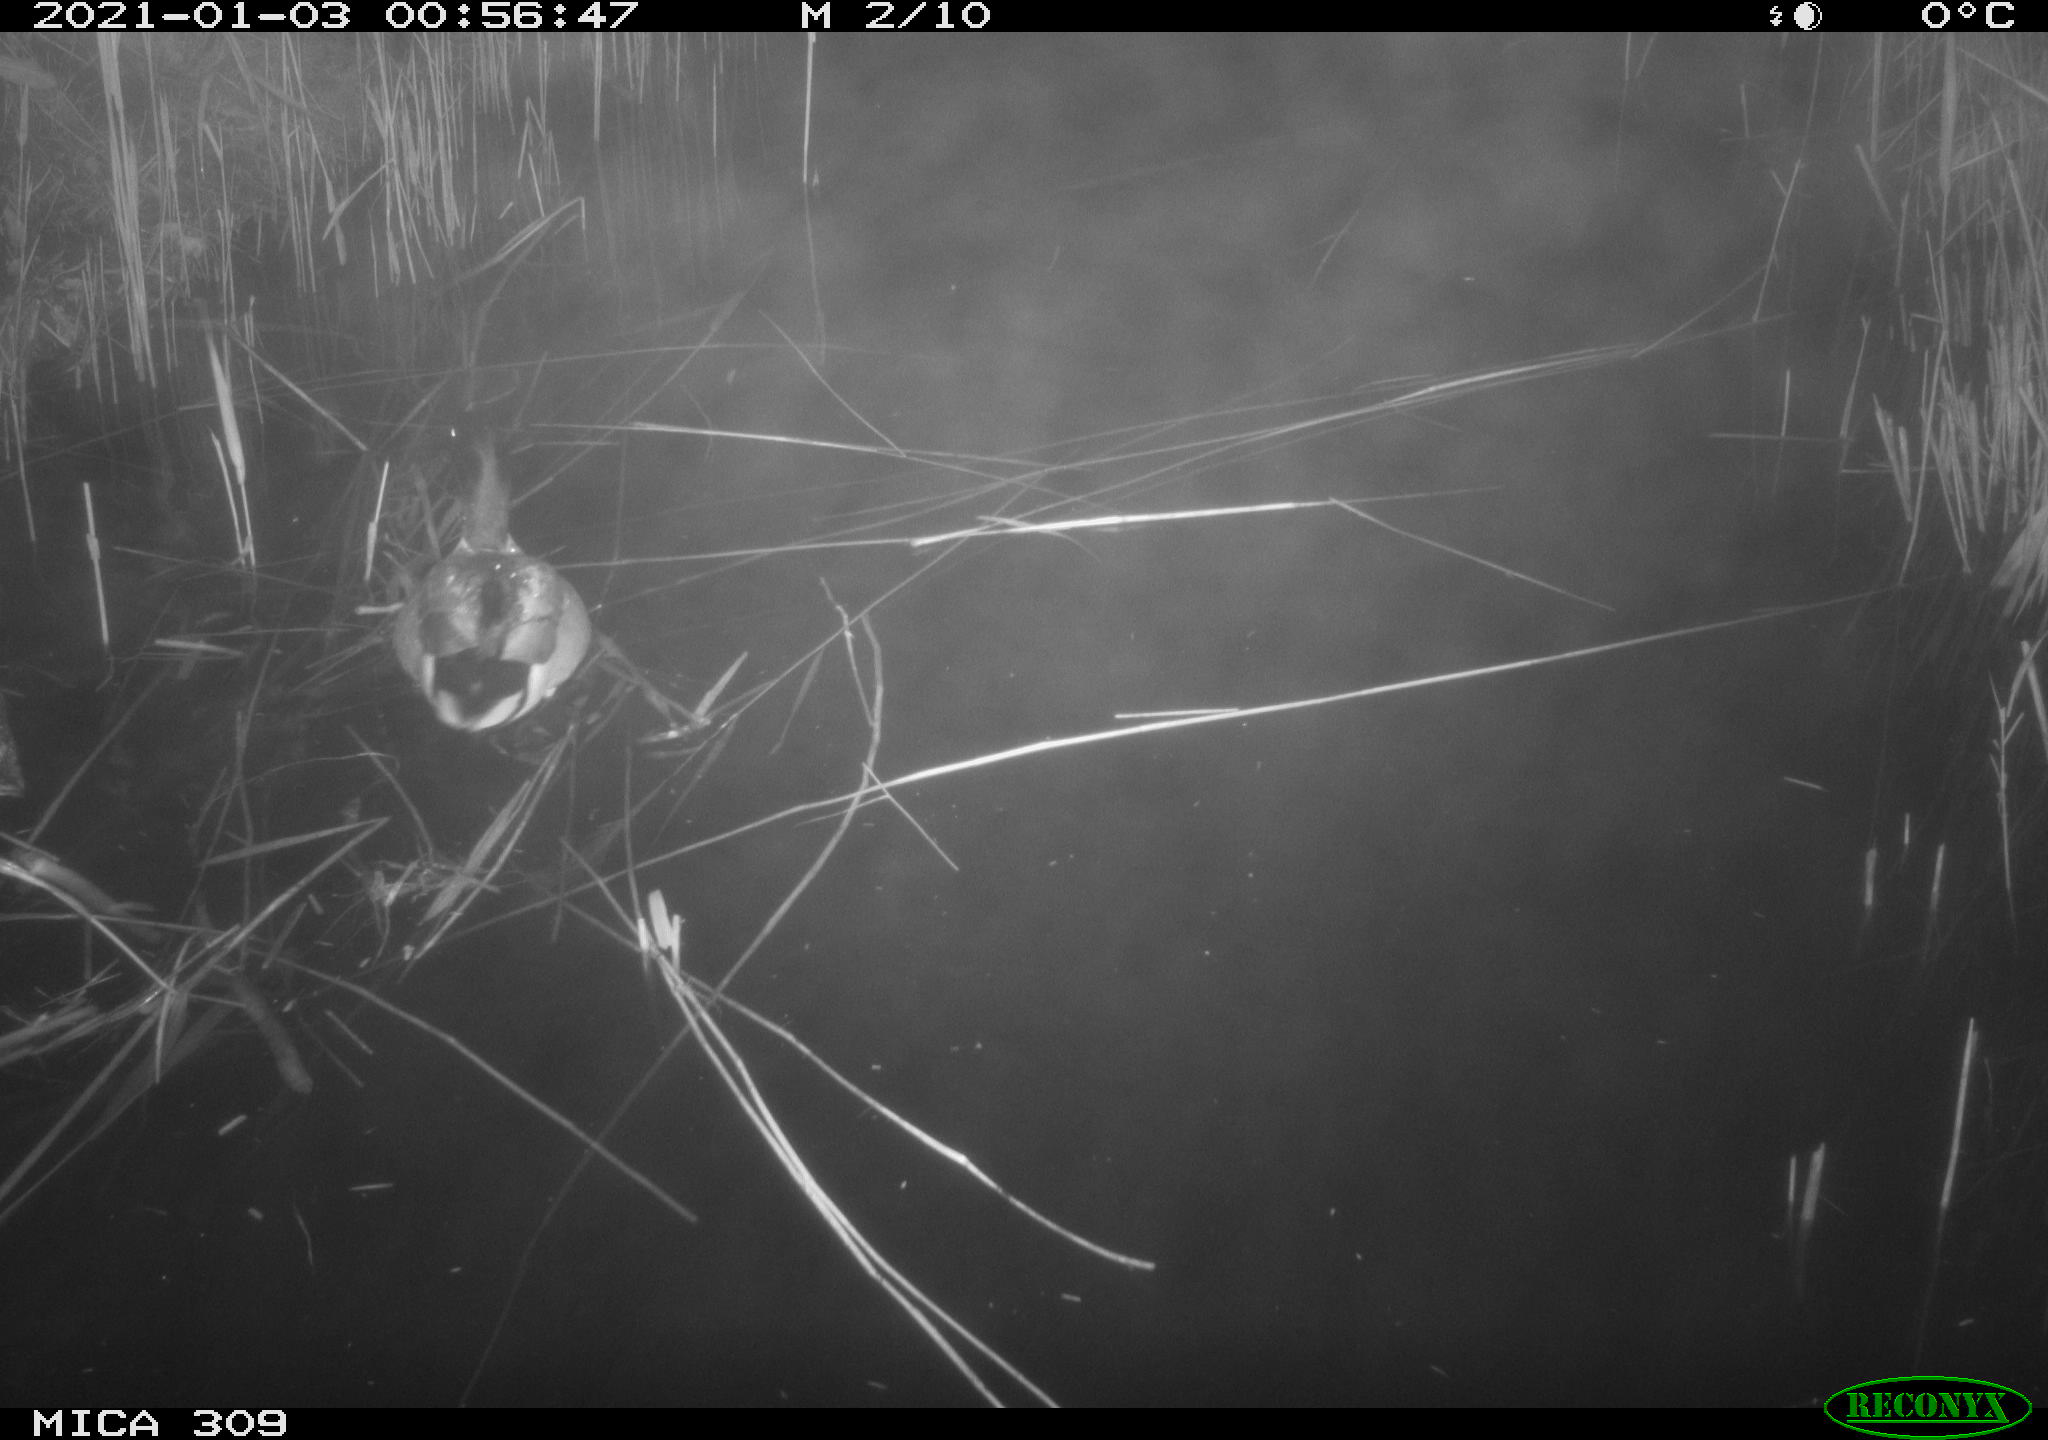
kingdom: Animalia
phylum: Chordata
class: Aves
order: Anseriformes
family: Anatidae
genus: Anas
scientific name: Anas platyrhynchos
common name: Mallard
